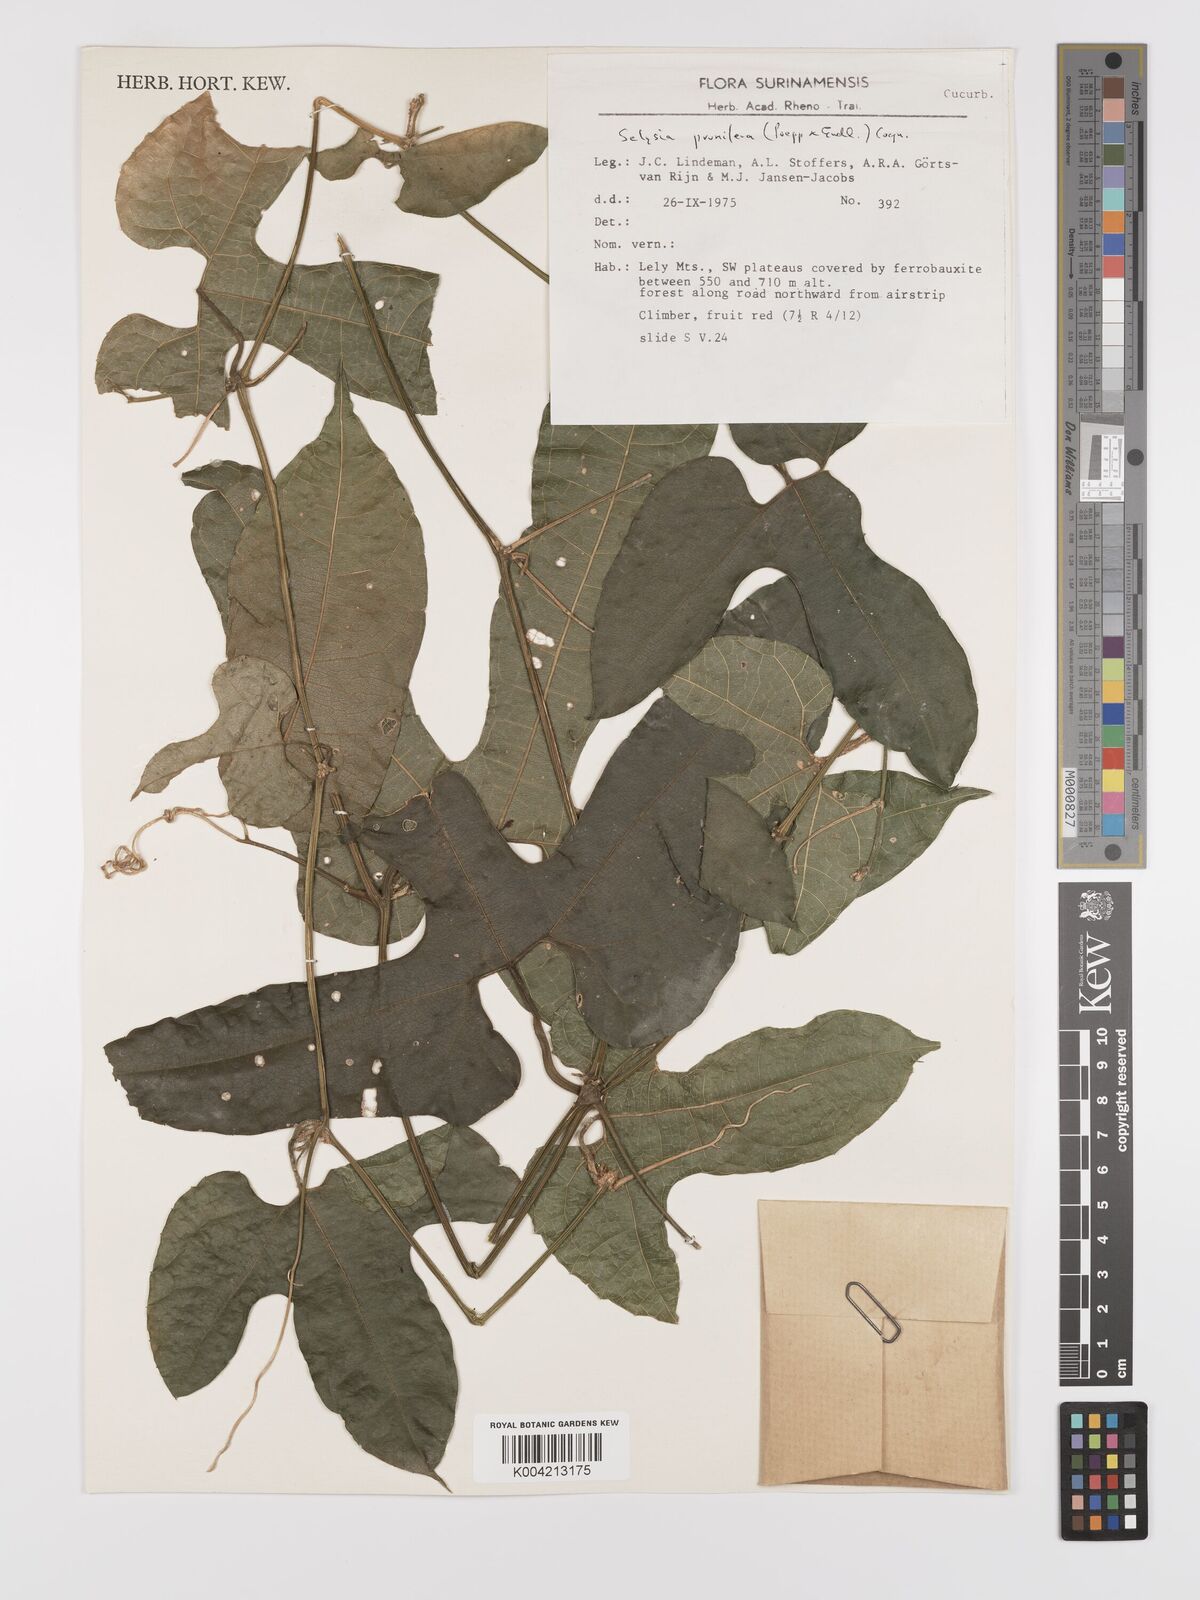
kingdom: Plantae
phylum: Tracheophyta
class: Magnoliopsida
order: Cucurbitales
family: Cucurbitaceae
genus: Cayaponia
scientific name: Cayaponia prunifera
